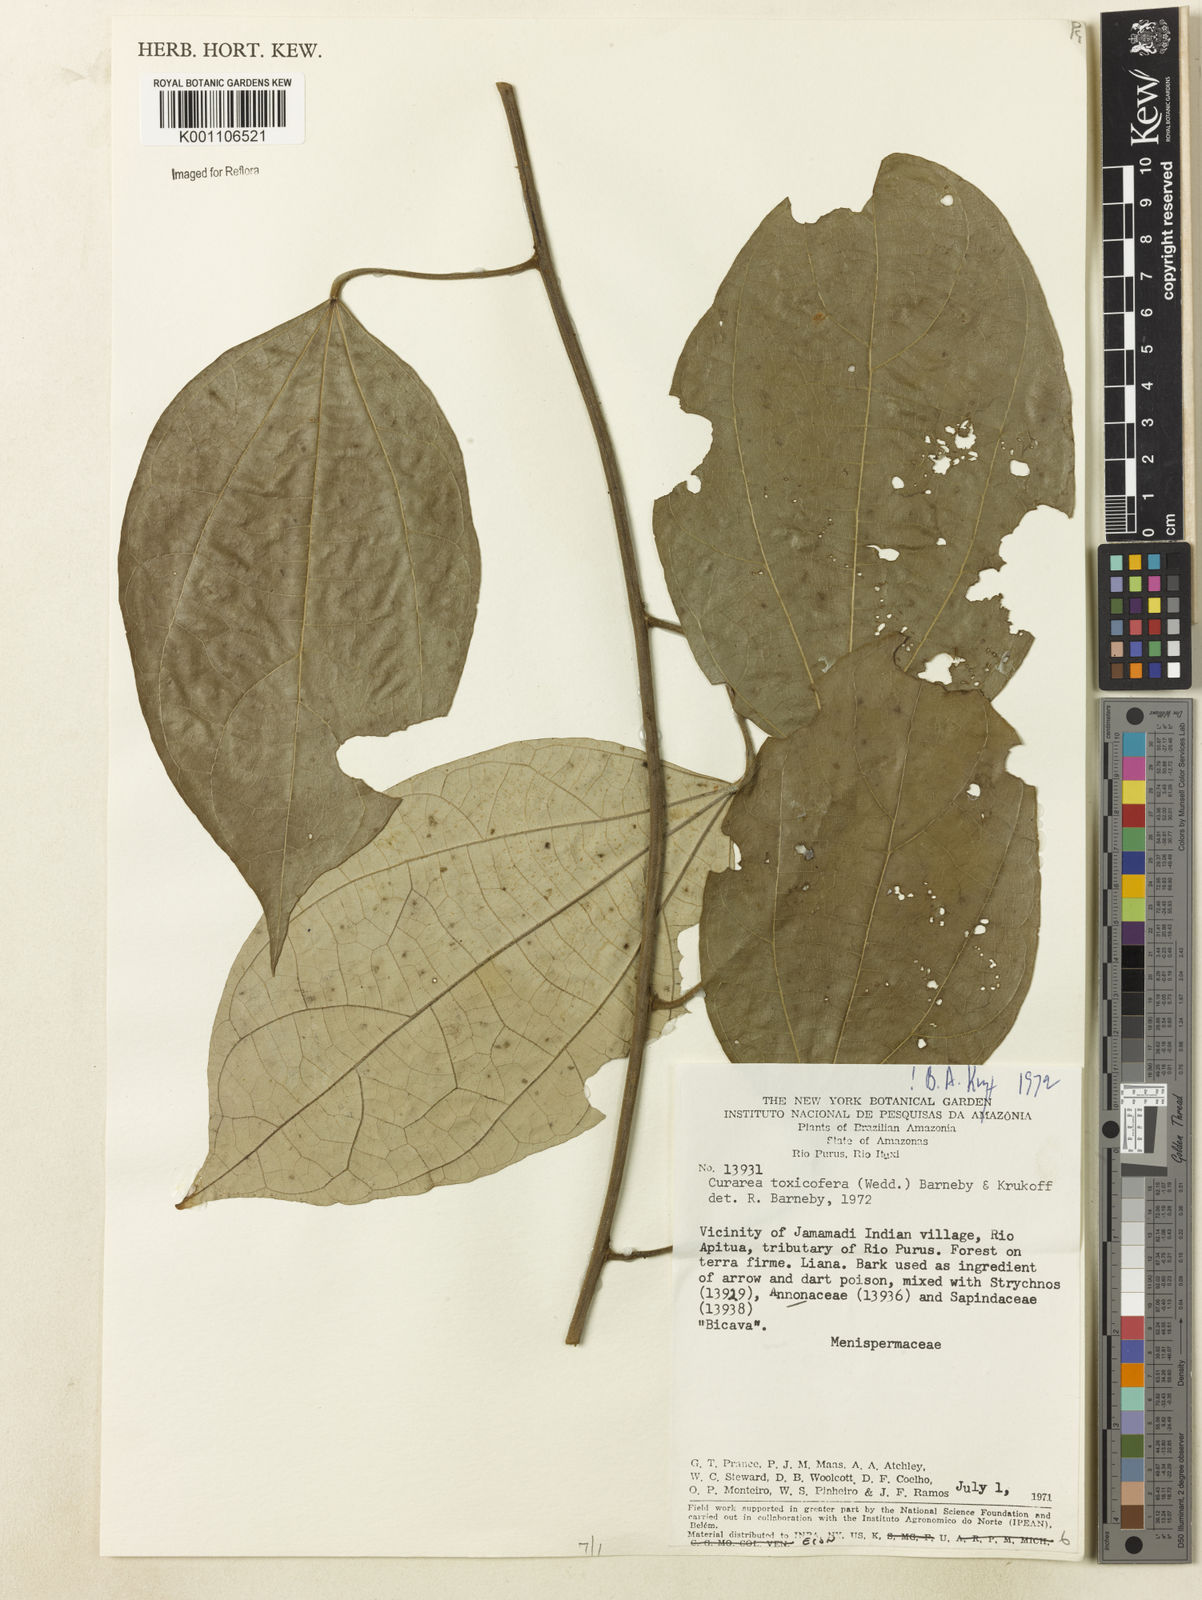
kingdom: Plantae
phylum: Tracheophyta
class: Magnoliopsida
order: Ranunculales
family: Menispermaceae
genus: Curarea
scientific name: Curarea toxicofera
